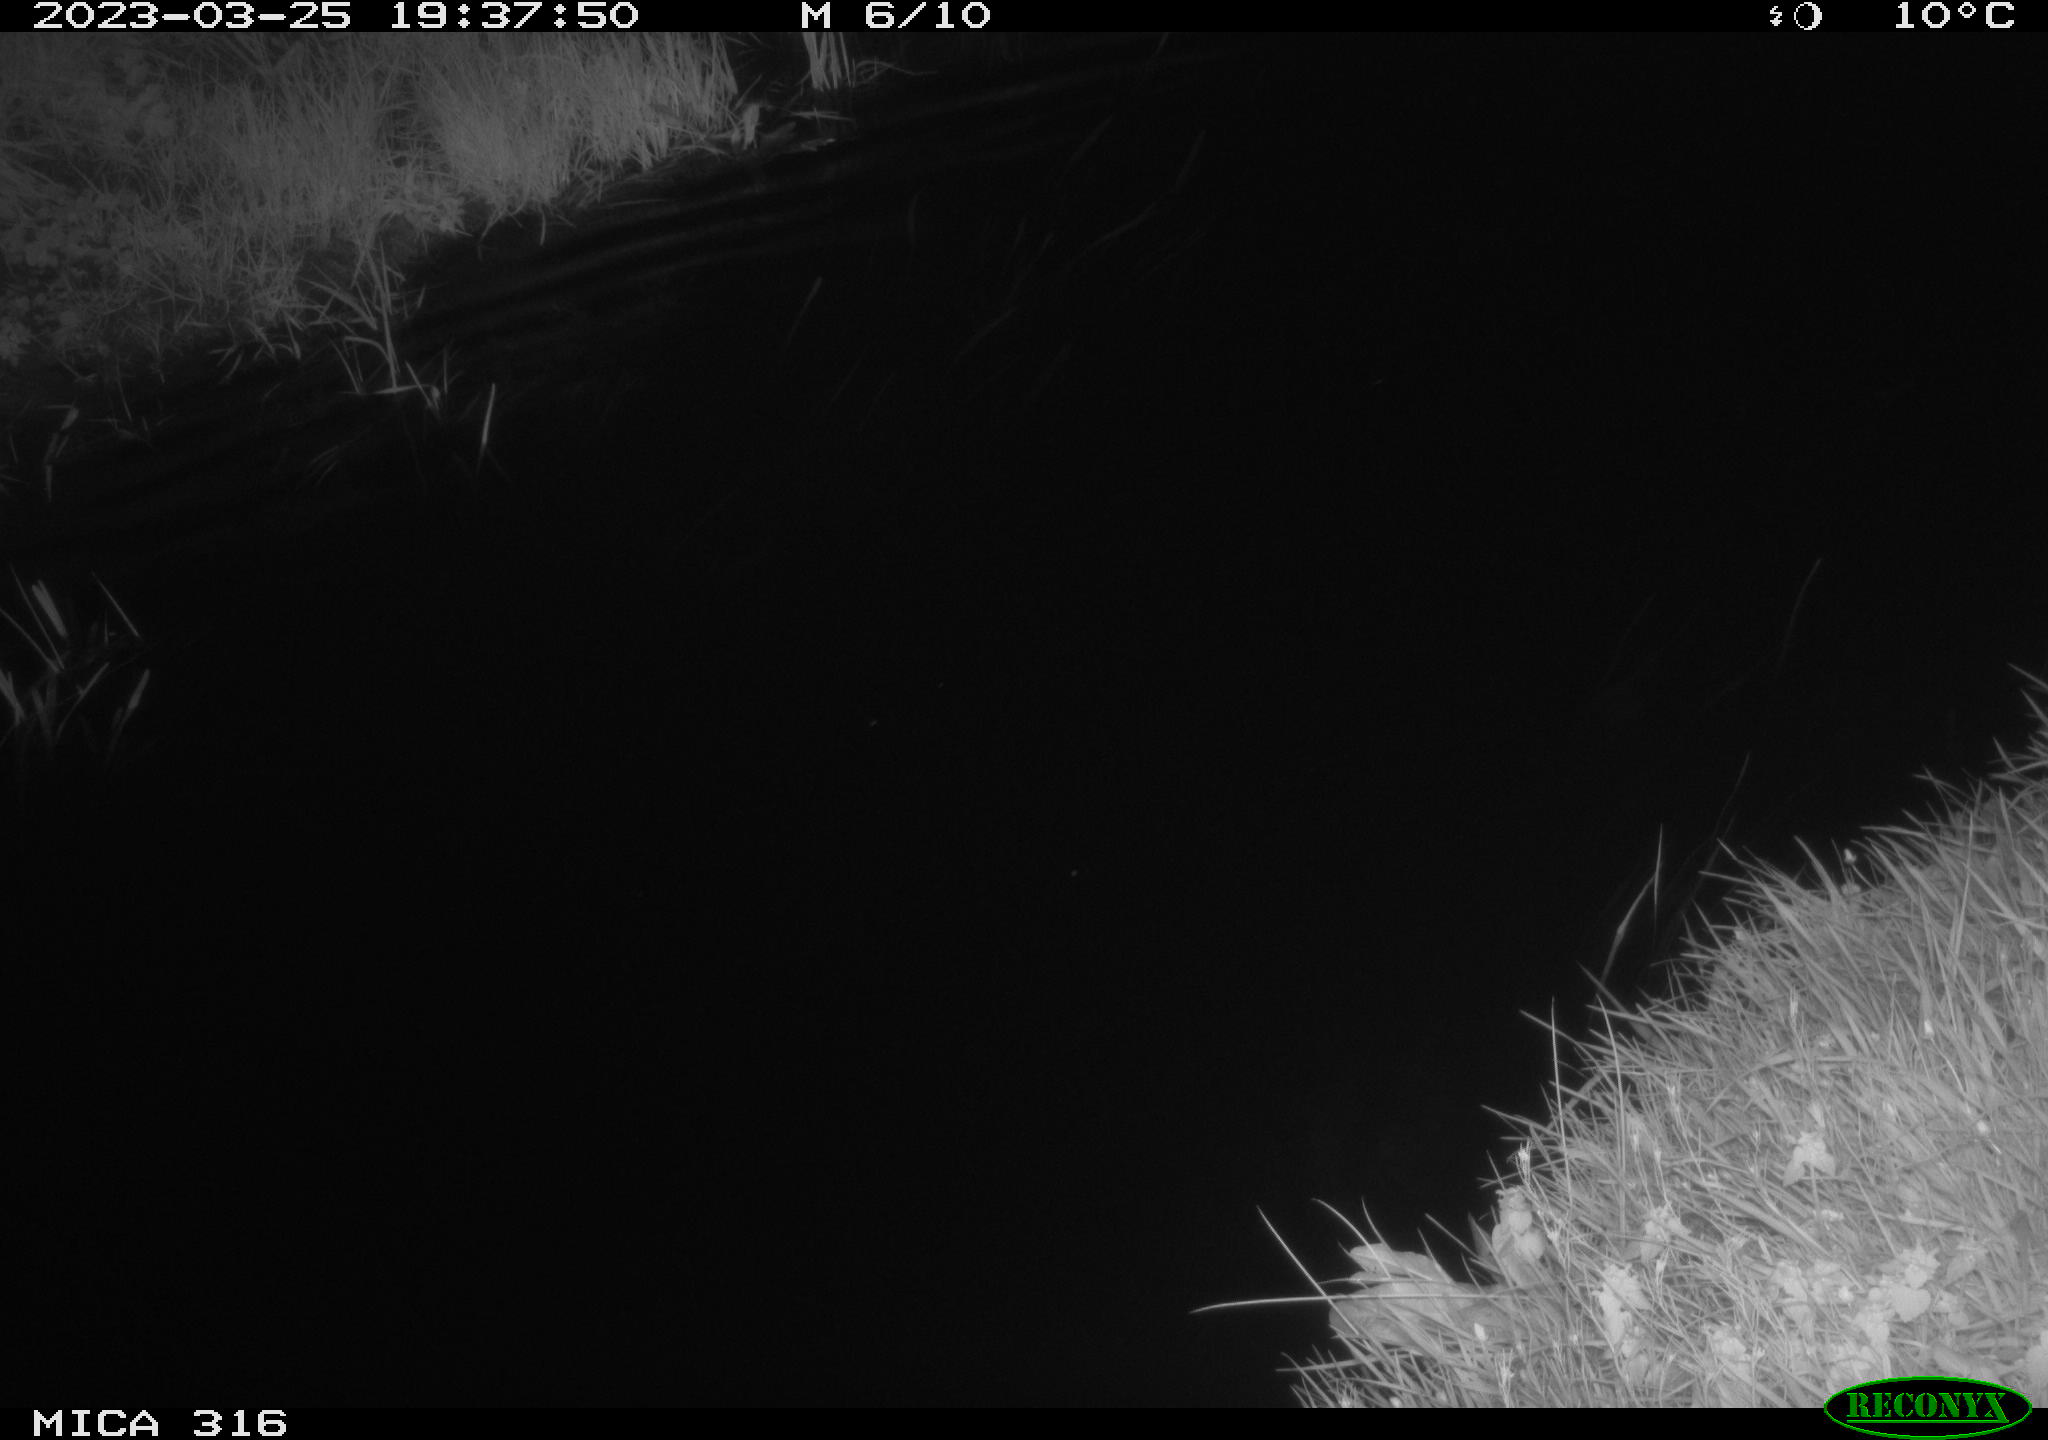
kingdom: Animalia
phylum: Chordata
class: Aves
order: Anseriformes
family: Anatidae
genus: Anas
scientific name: Anas
